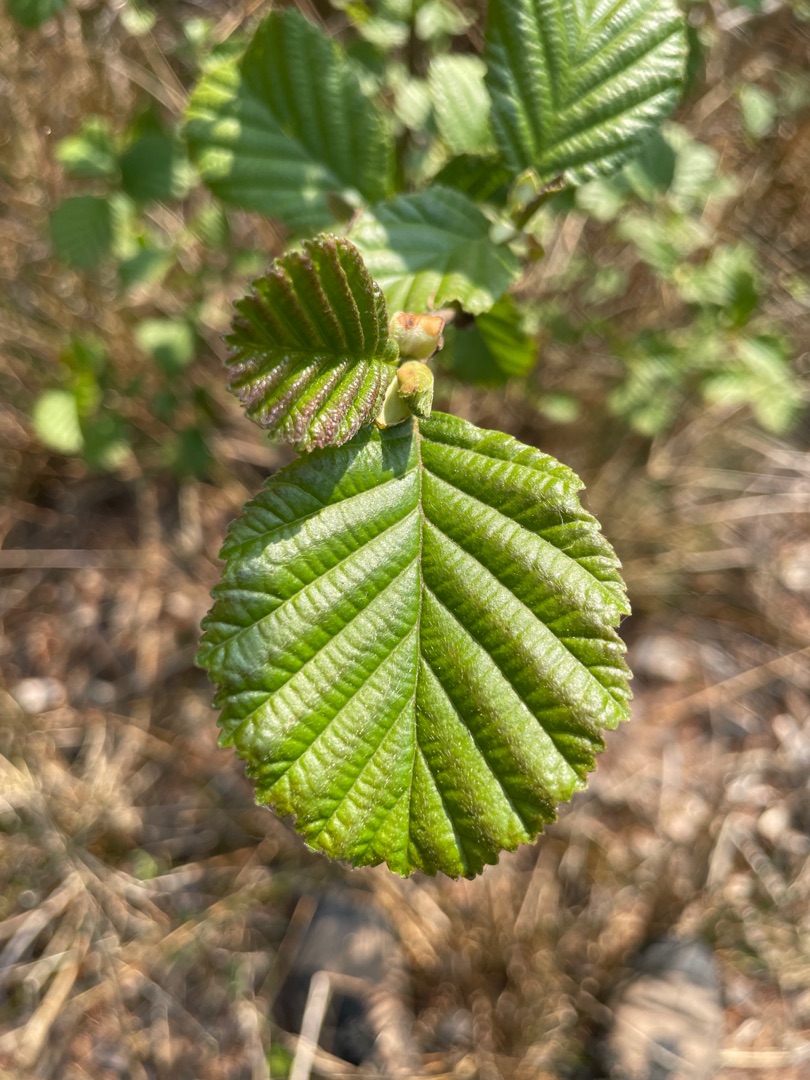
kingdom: Plantae
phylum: Tracheophyta
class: Magnoliopsida
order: Fagales
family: Betulaceae
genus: Alnus
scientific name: Alnus glutinosa
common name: Rød-el
